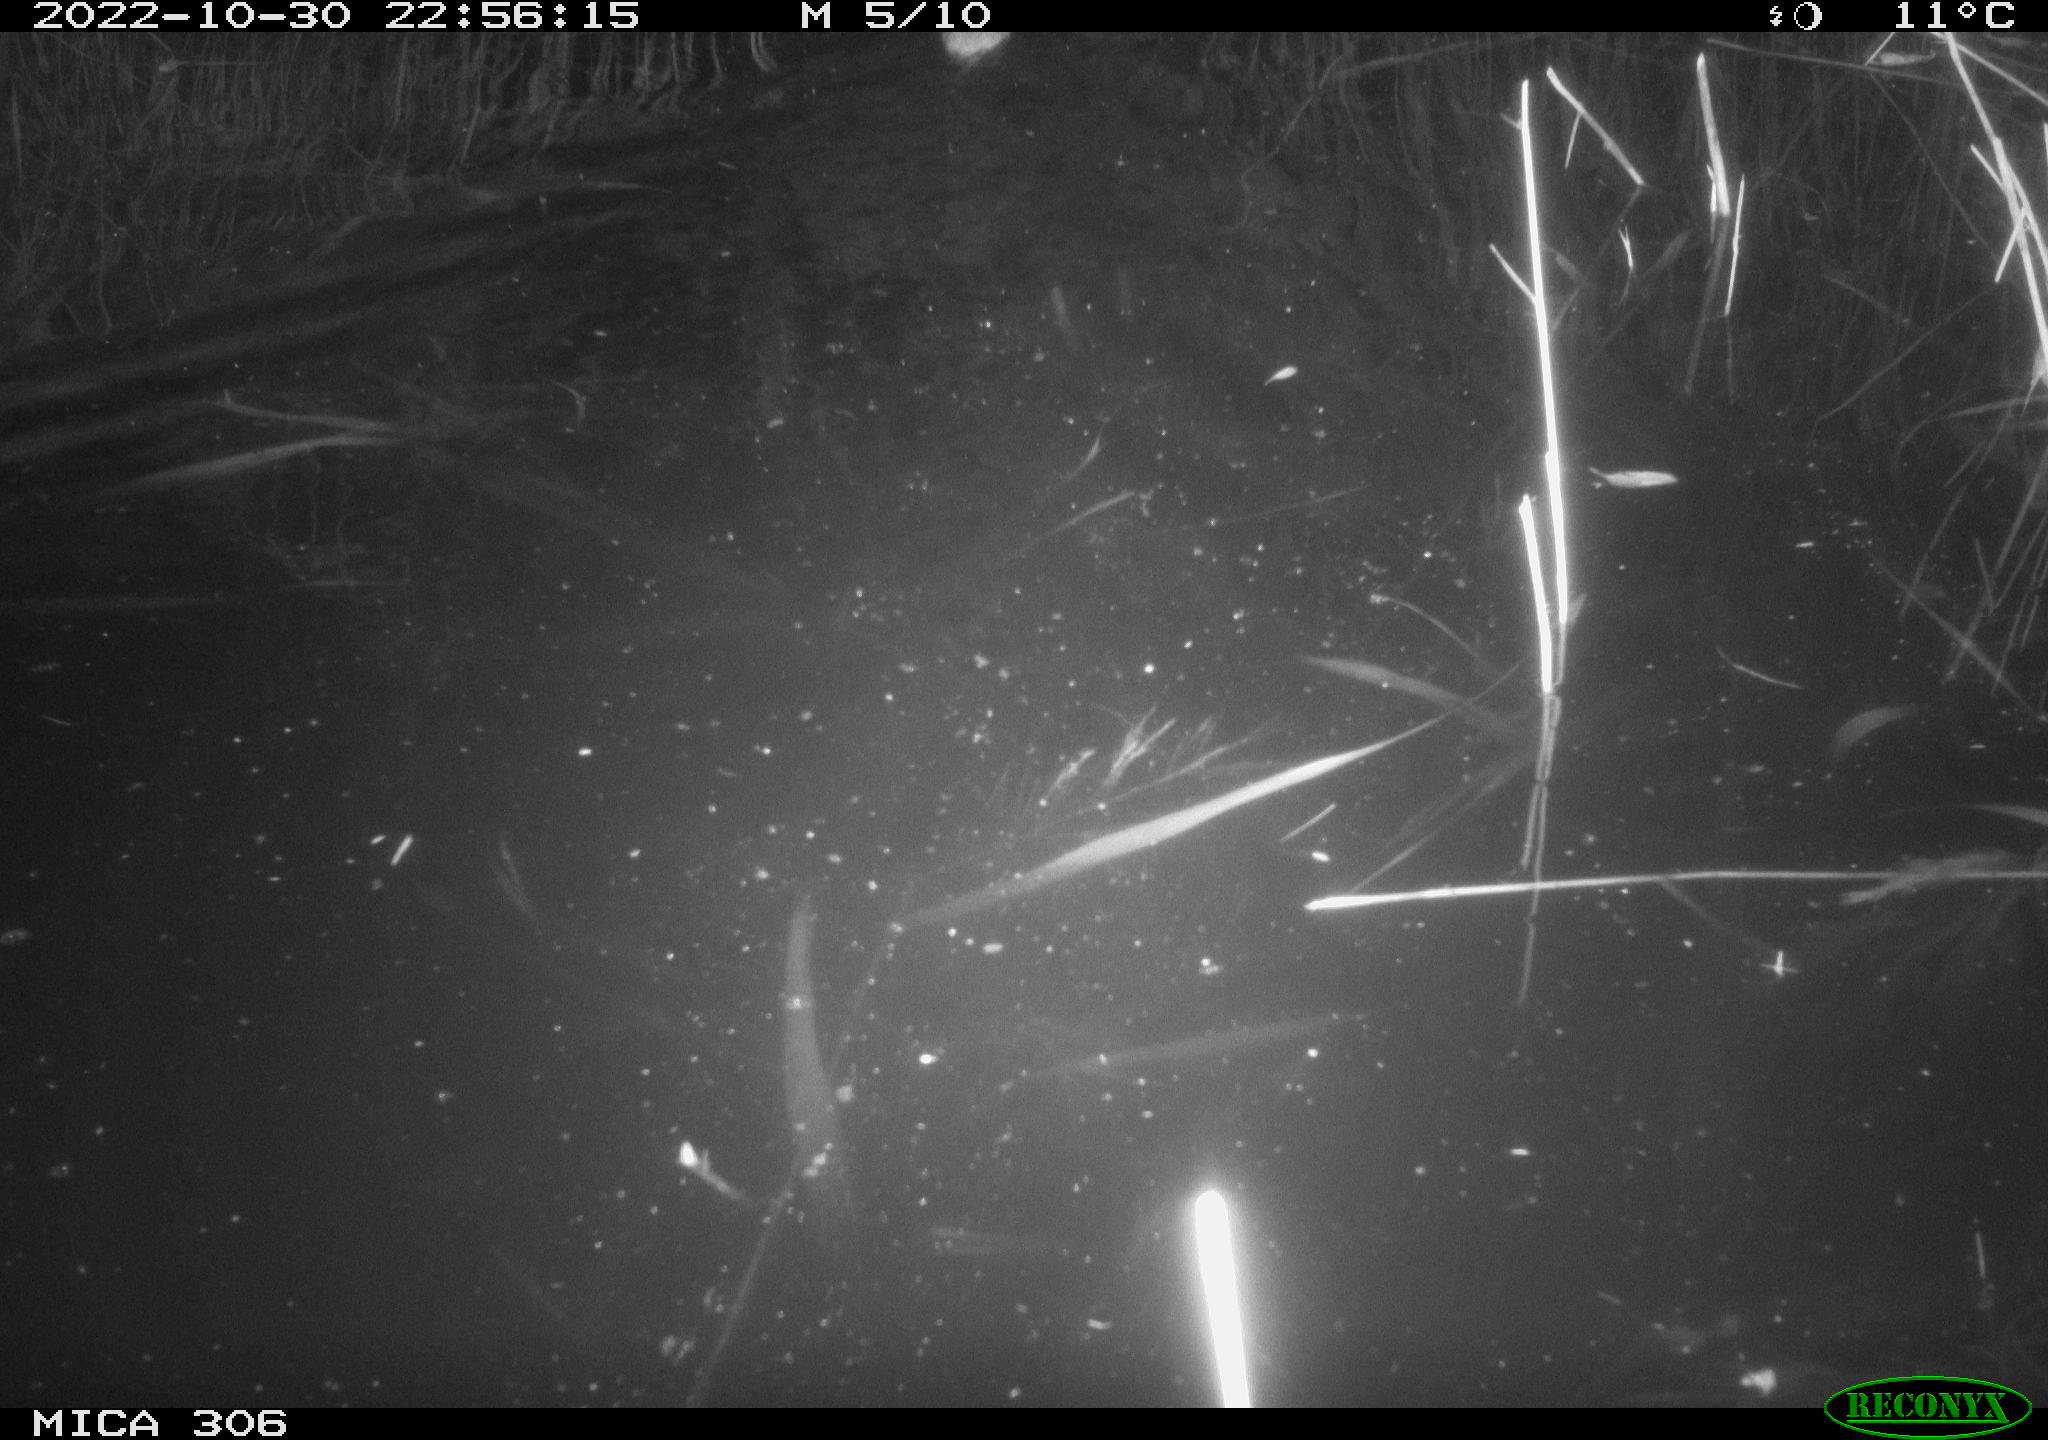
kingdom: Animalia
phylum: Chordata
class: Mammalia
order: Rodentia
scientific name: Rodentia
